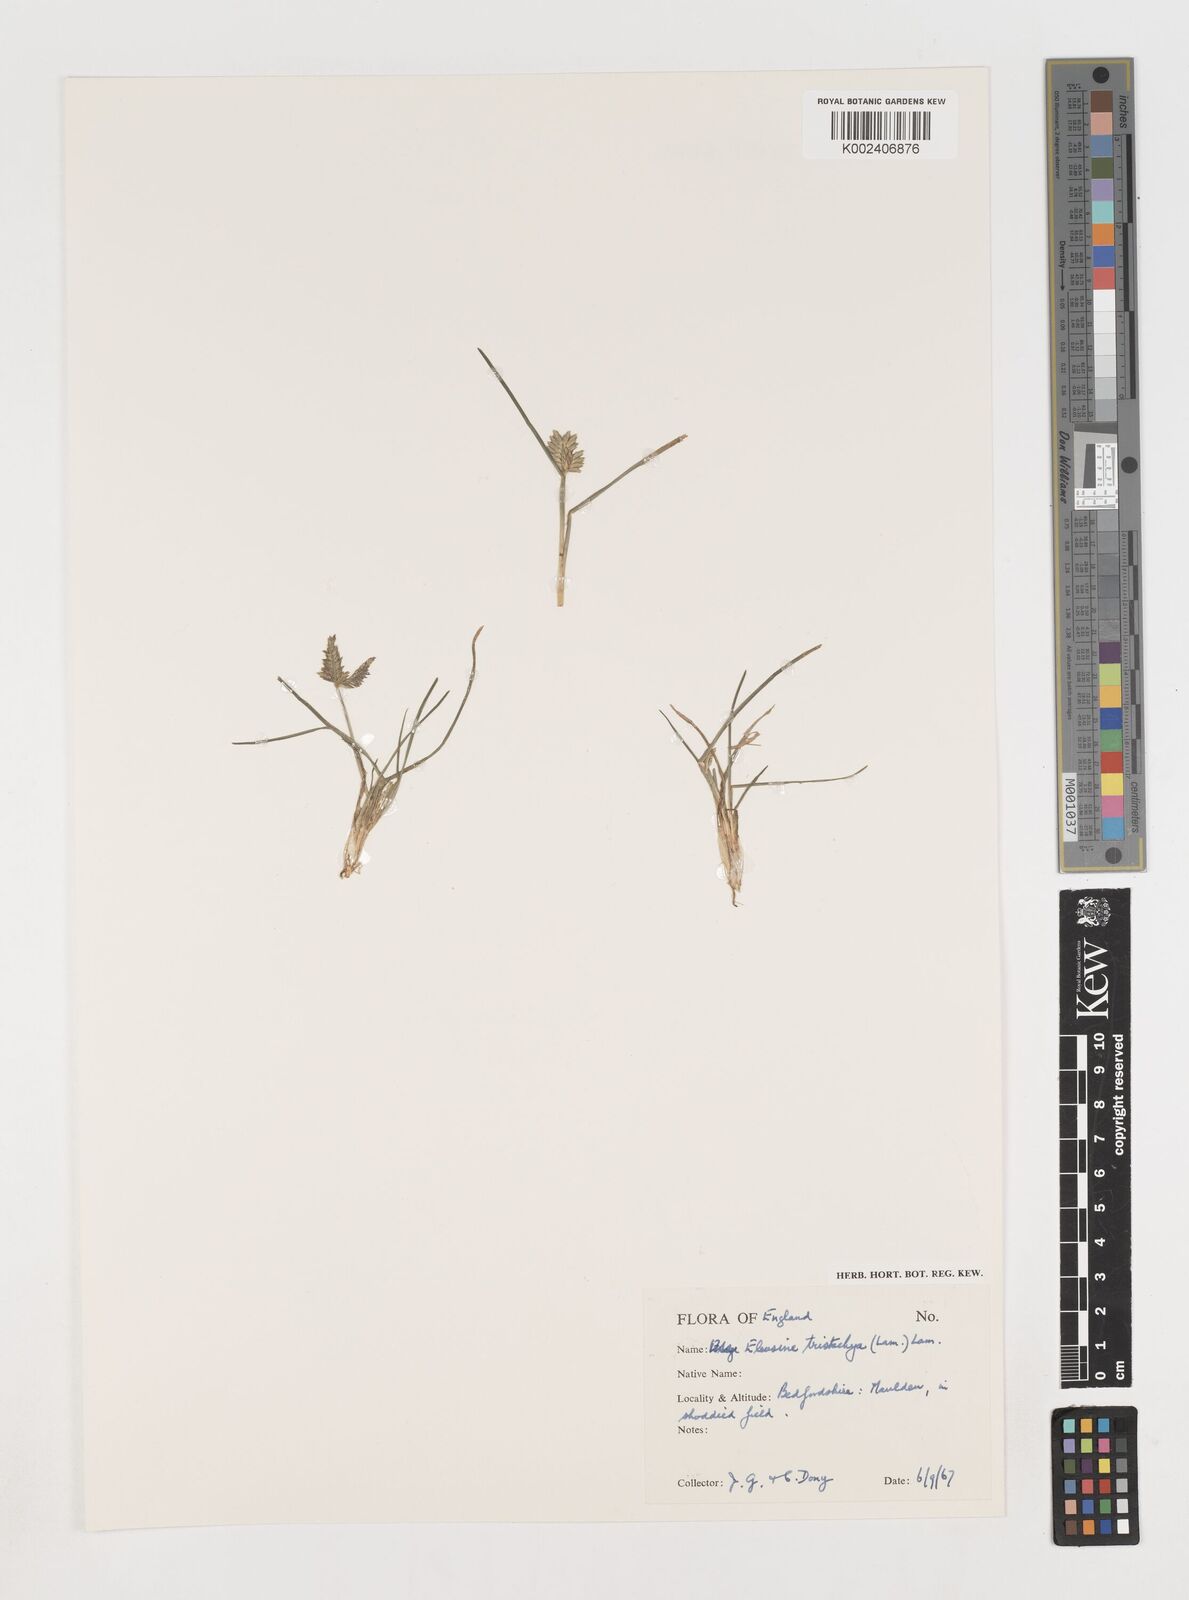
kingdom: Plantae
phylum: Tracheophyta
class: Liliopsida
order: Poales
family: Poaceae
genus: Eleusine
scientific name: Eleusine tristachya
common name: American yard-grass
